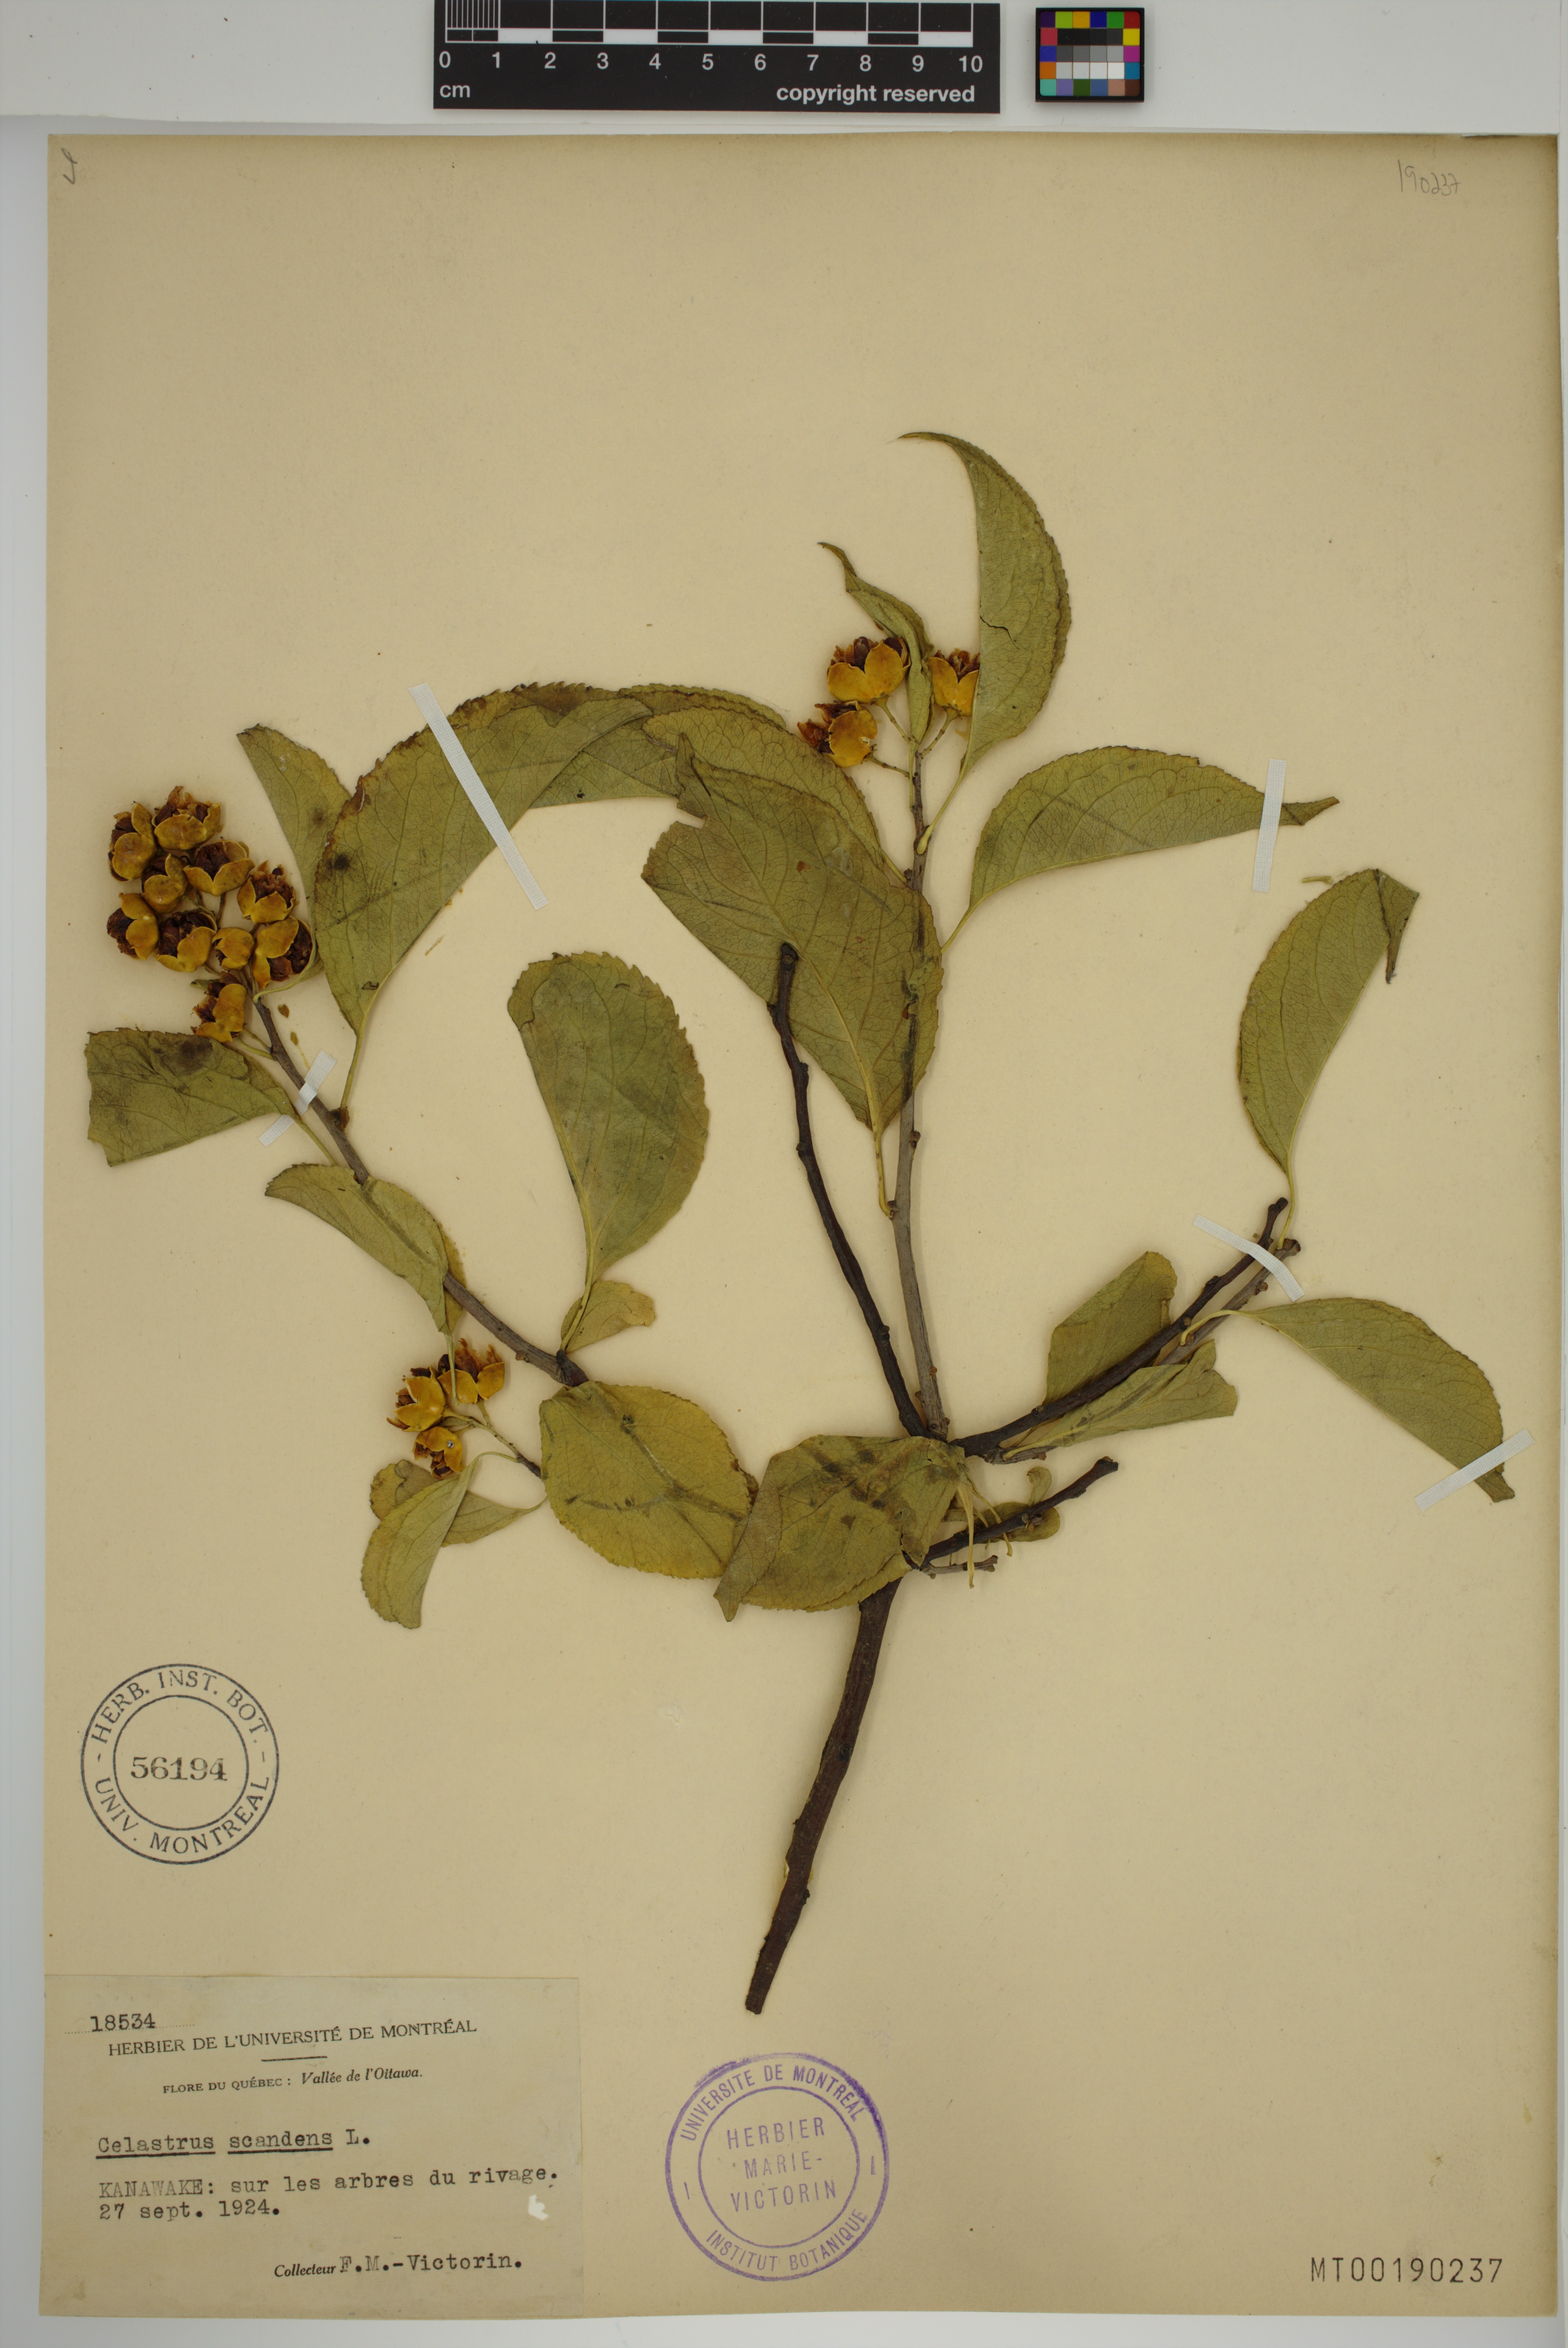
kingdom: Plantae
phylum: Tracheophyta
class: Magnoliopsida
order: Celastrales
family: Celastraceae
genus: Celastrus
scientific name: Celastrus scandens
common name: American bittersweet
